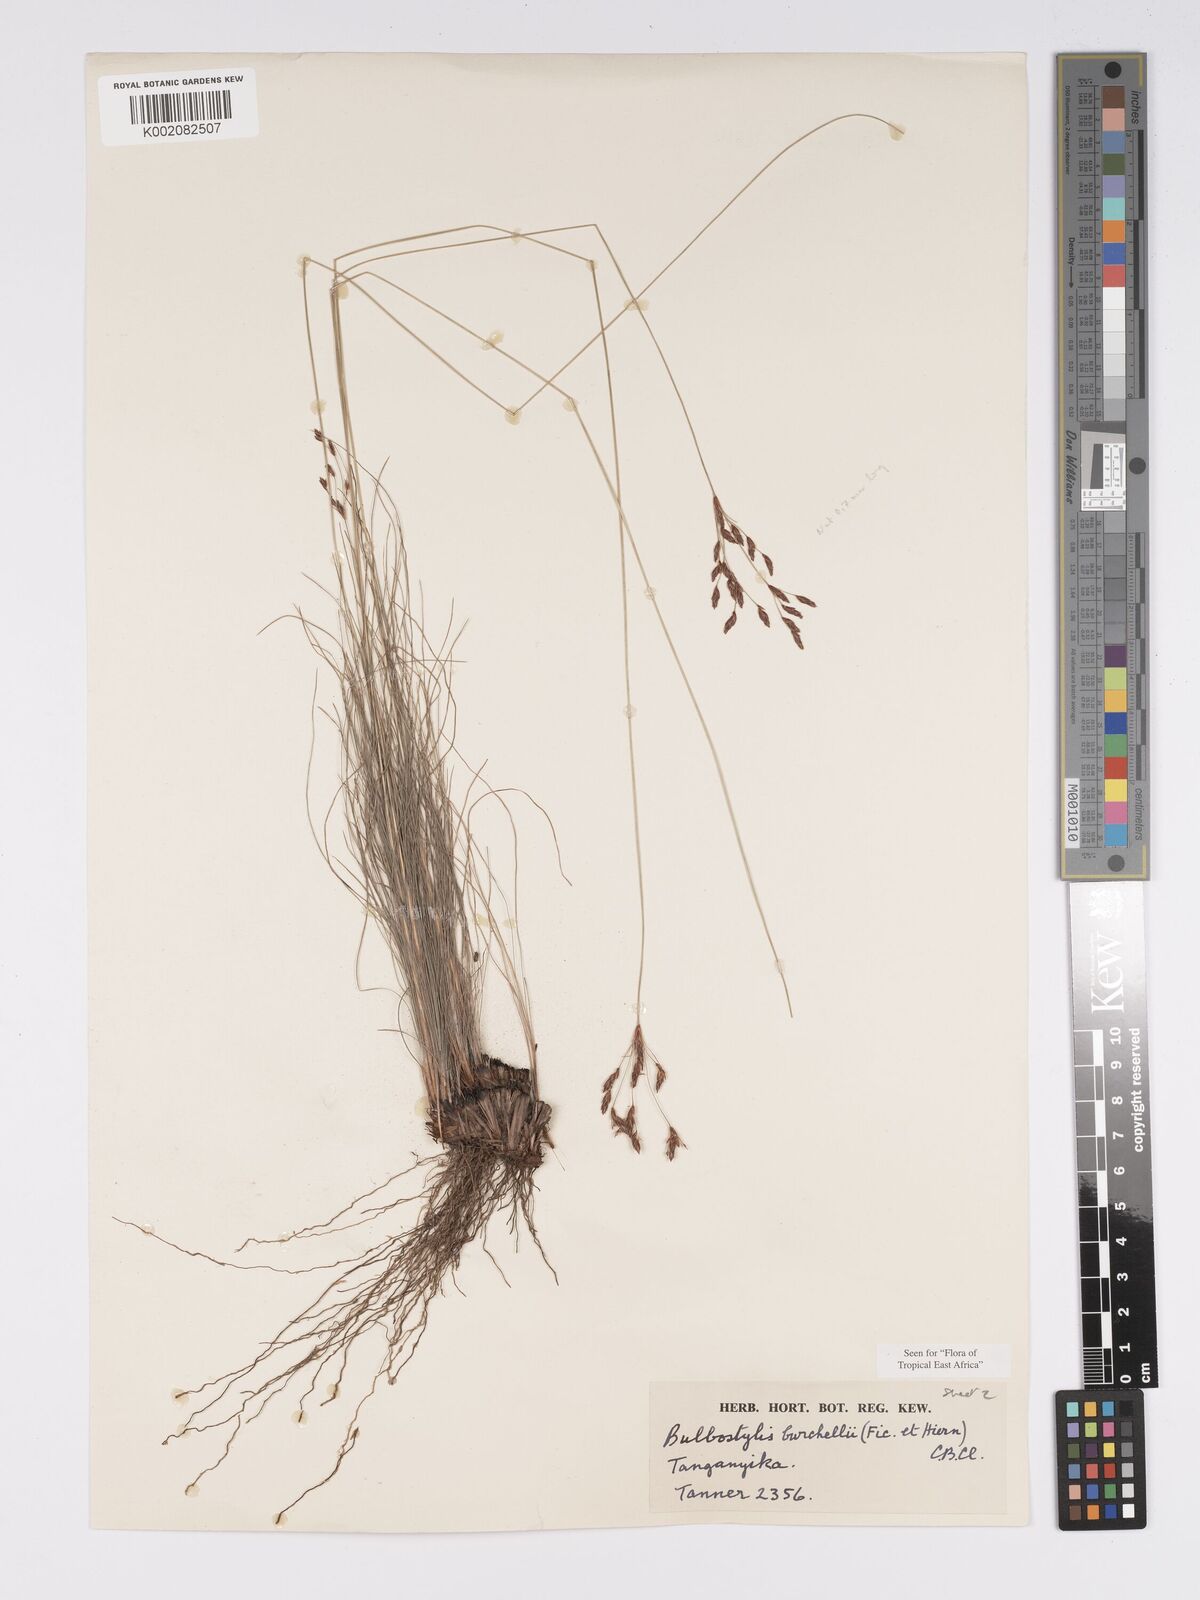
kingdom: Plantae
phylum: Tracheophyta
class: Liliopsida
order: Poales
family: Cyperaceae
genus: Bulbostylis
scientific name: Bulbostylis burchellii
